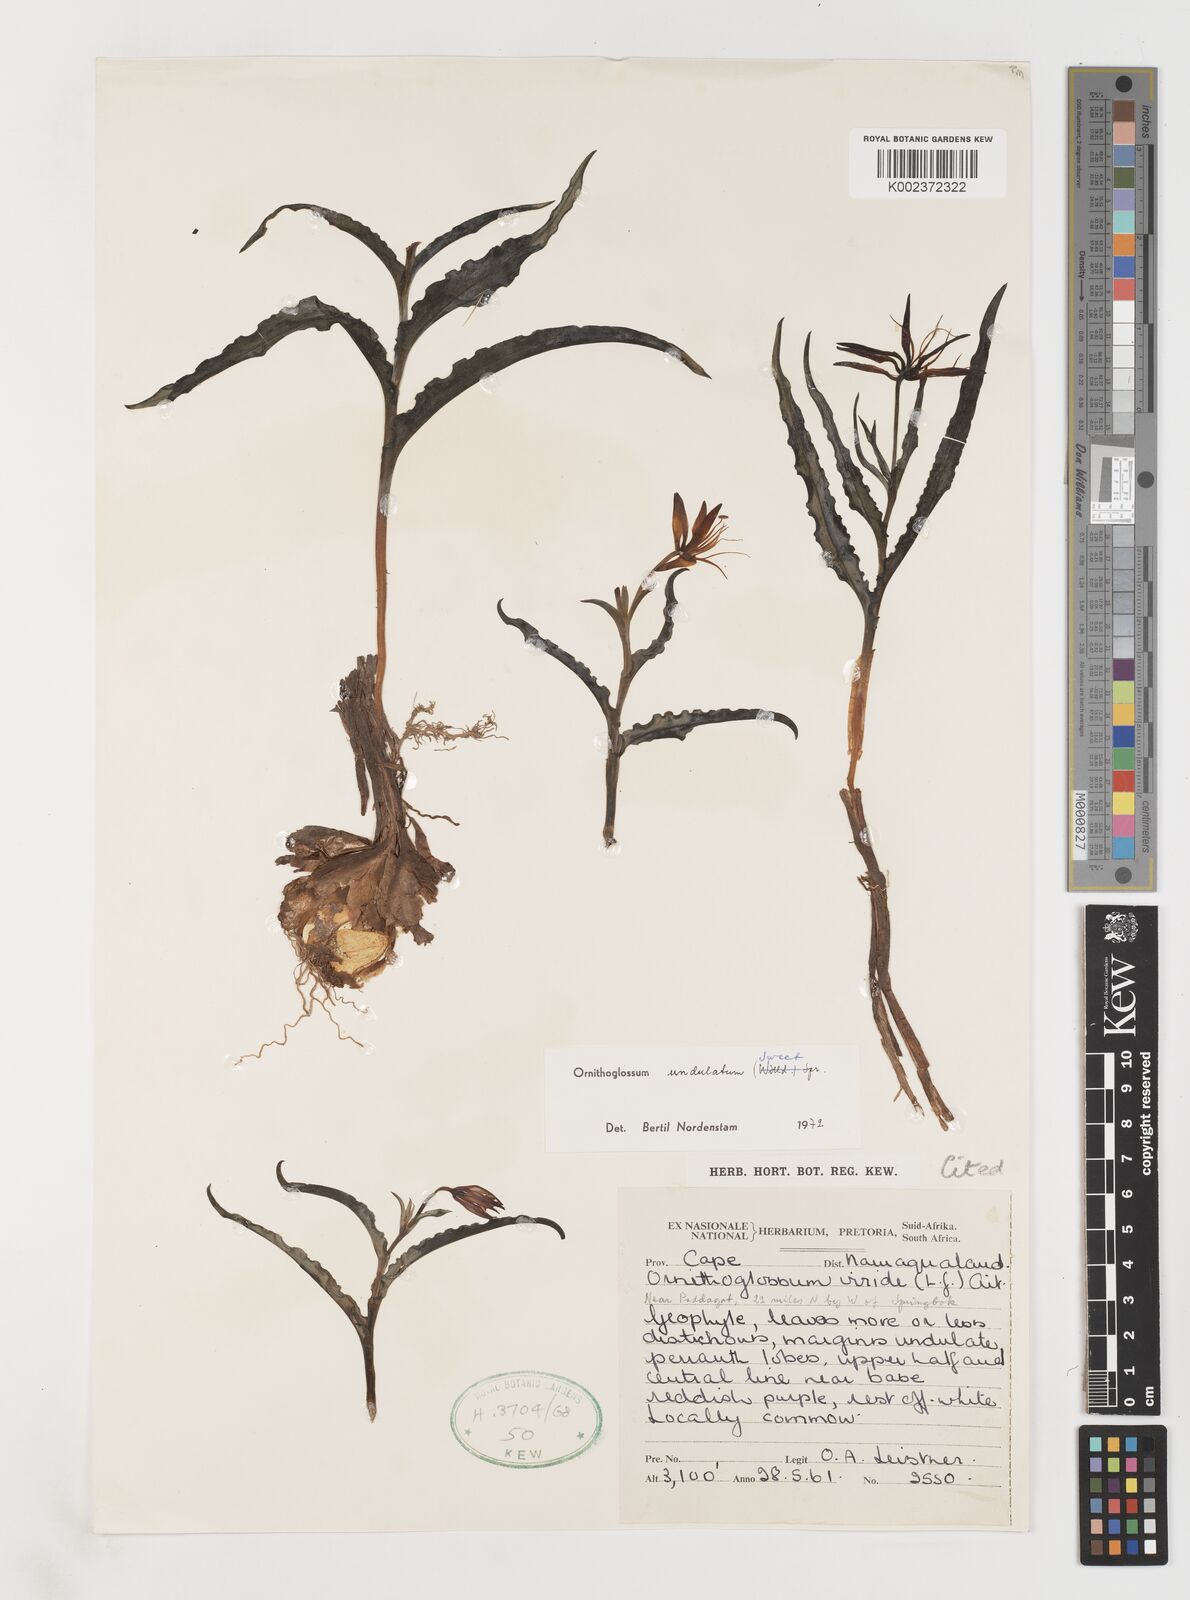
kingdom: Plantae
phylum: Tracheophyta
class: Liliopsida
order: Liliales
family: Colchicaceae
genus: Ornithoglossum
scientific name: Ornithoglossum undulatum
